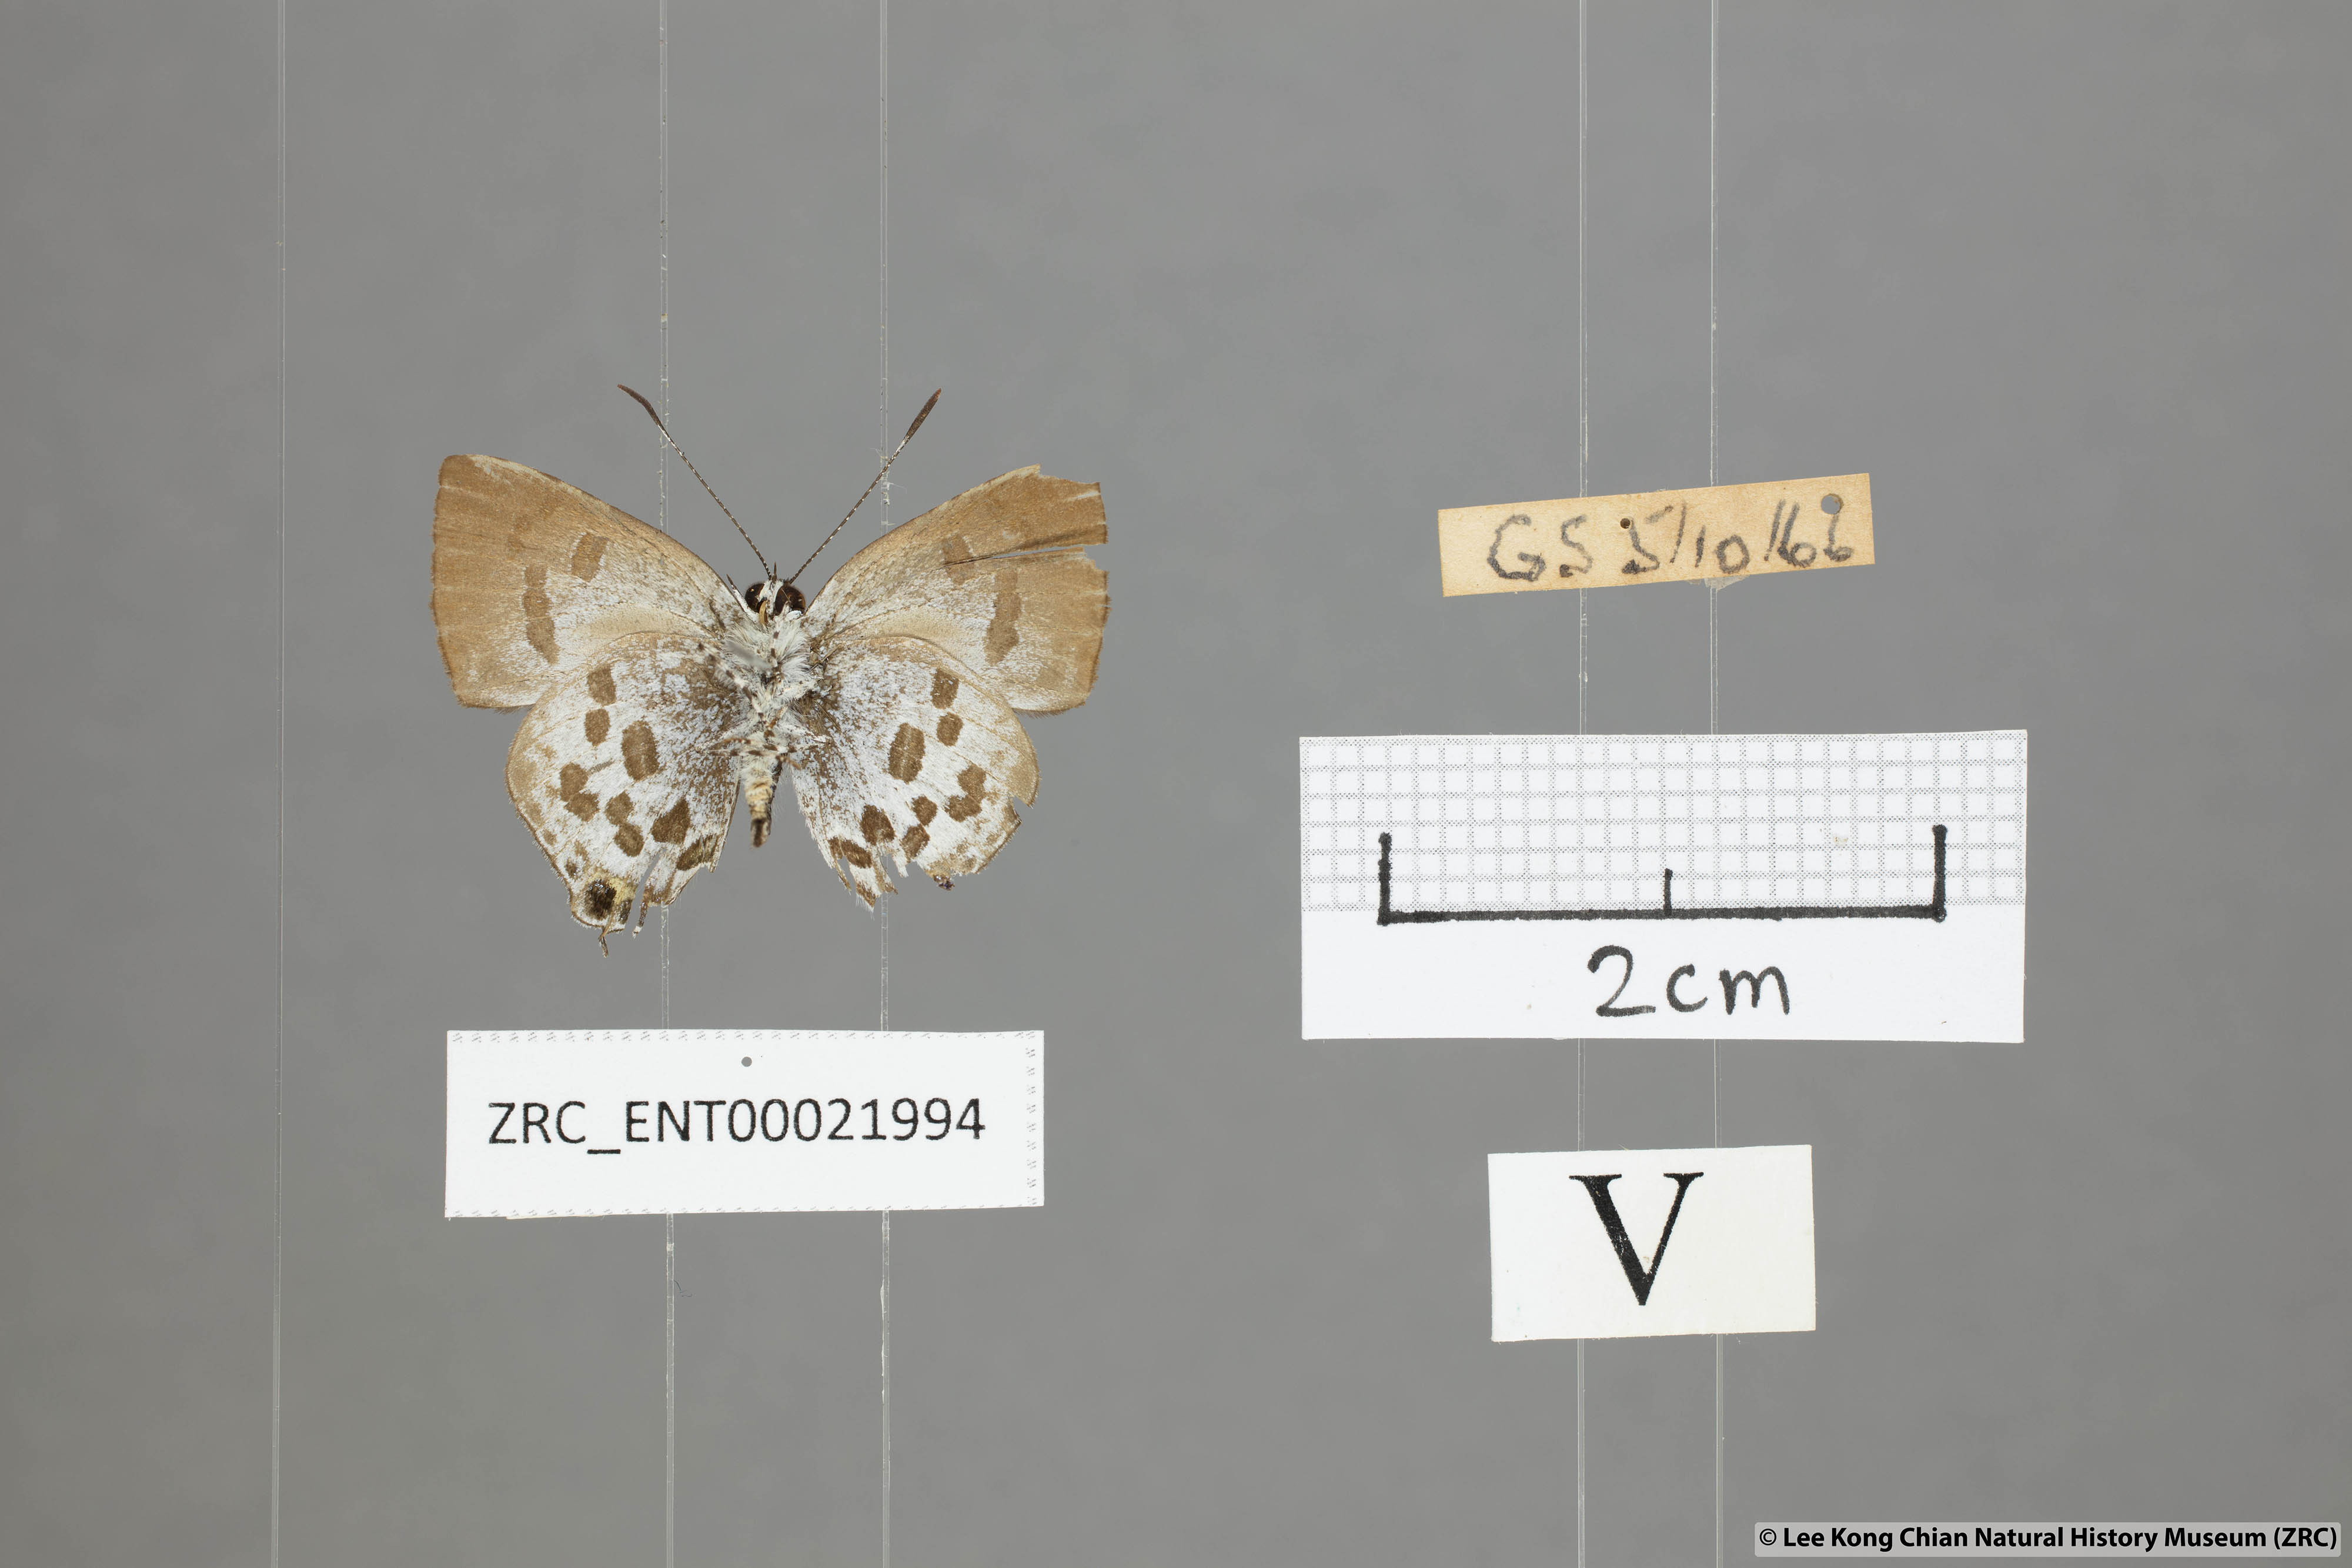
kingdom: Animalia
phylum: Arthropoda
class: Insecta
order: Lepidoptera
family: Lycaenidae
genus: Sinthusa
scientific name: Sinthusa malika
